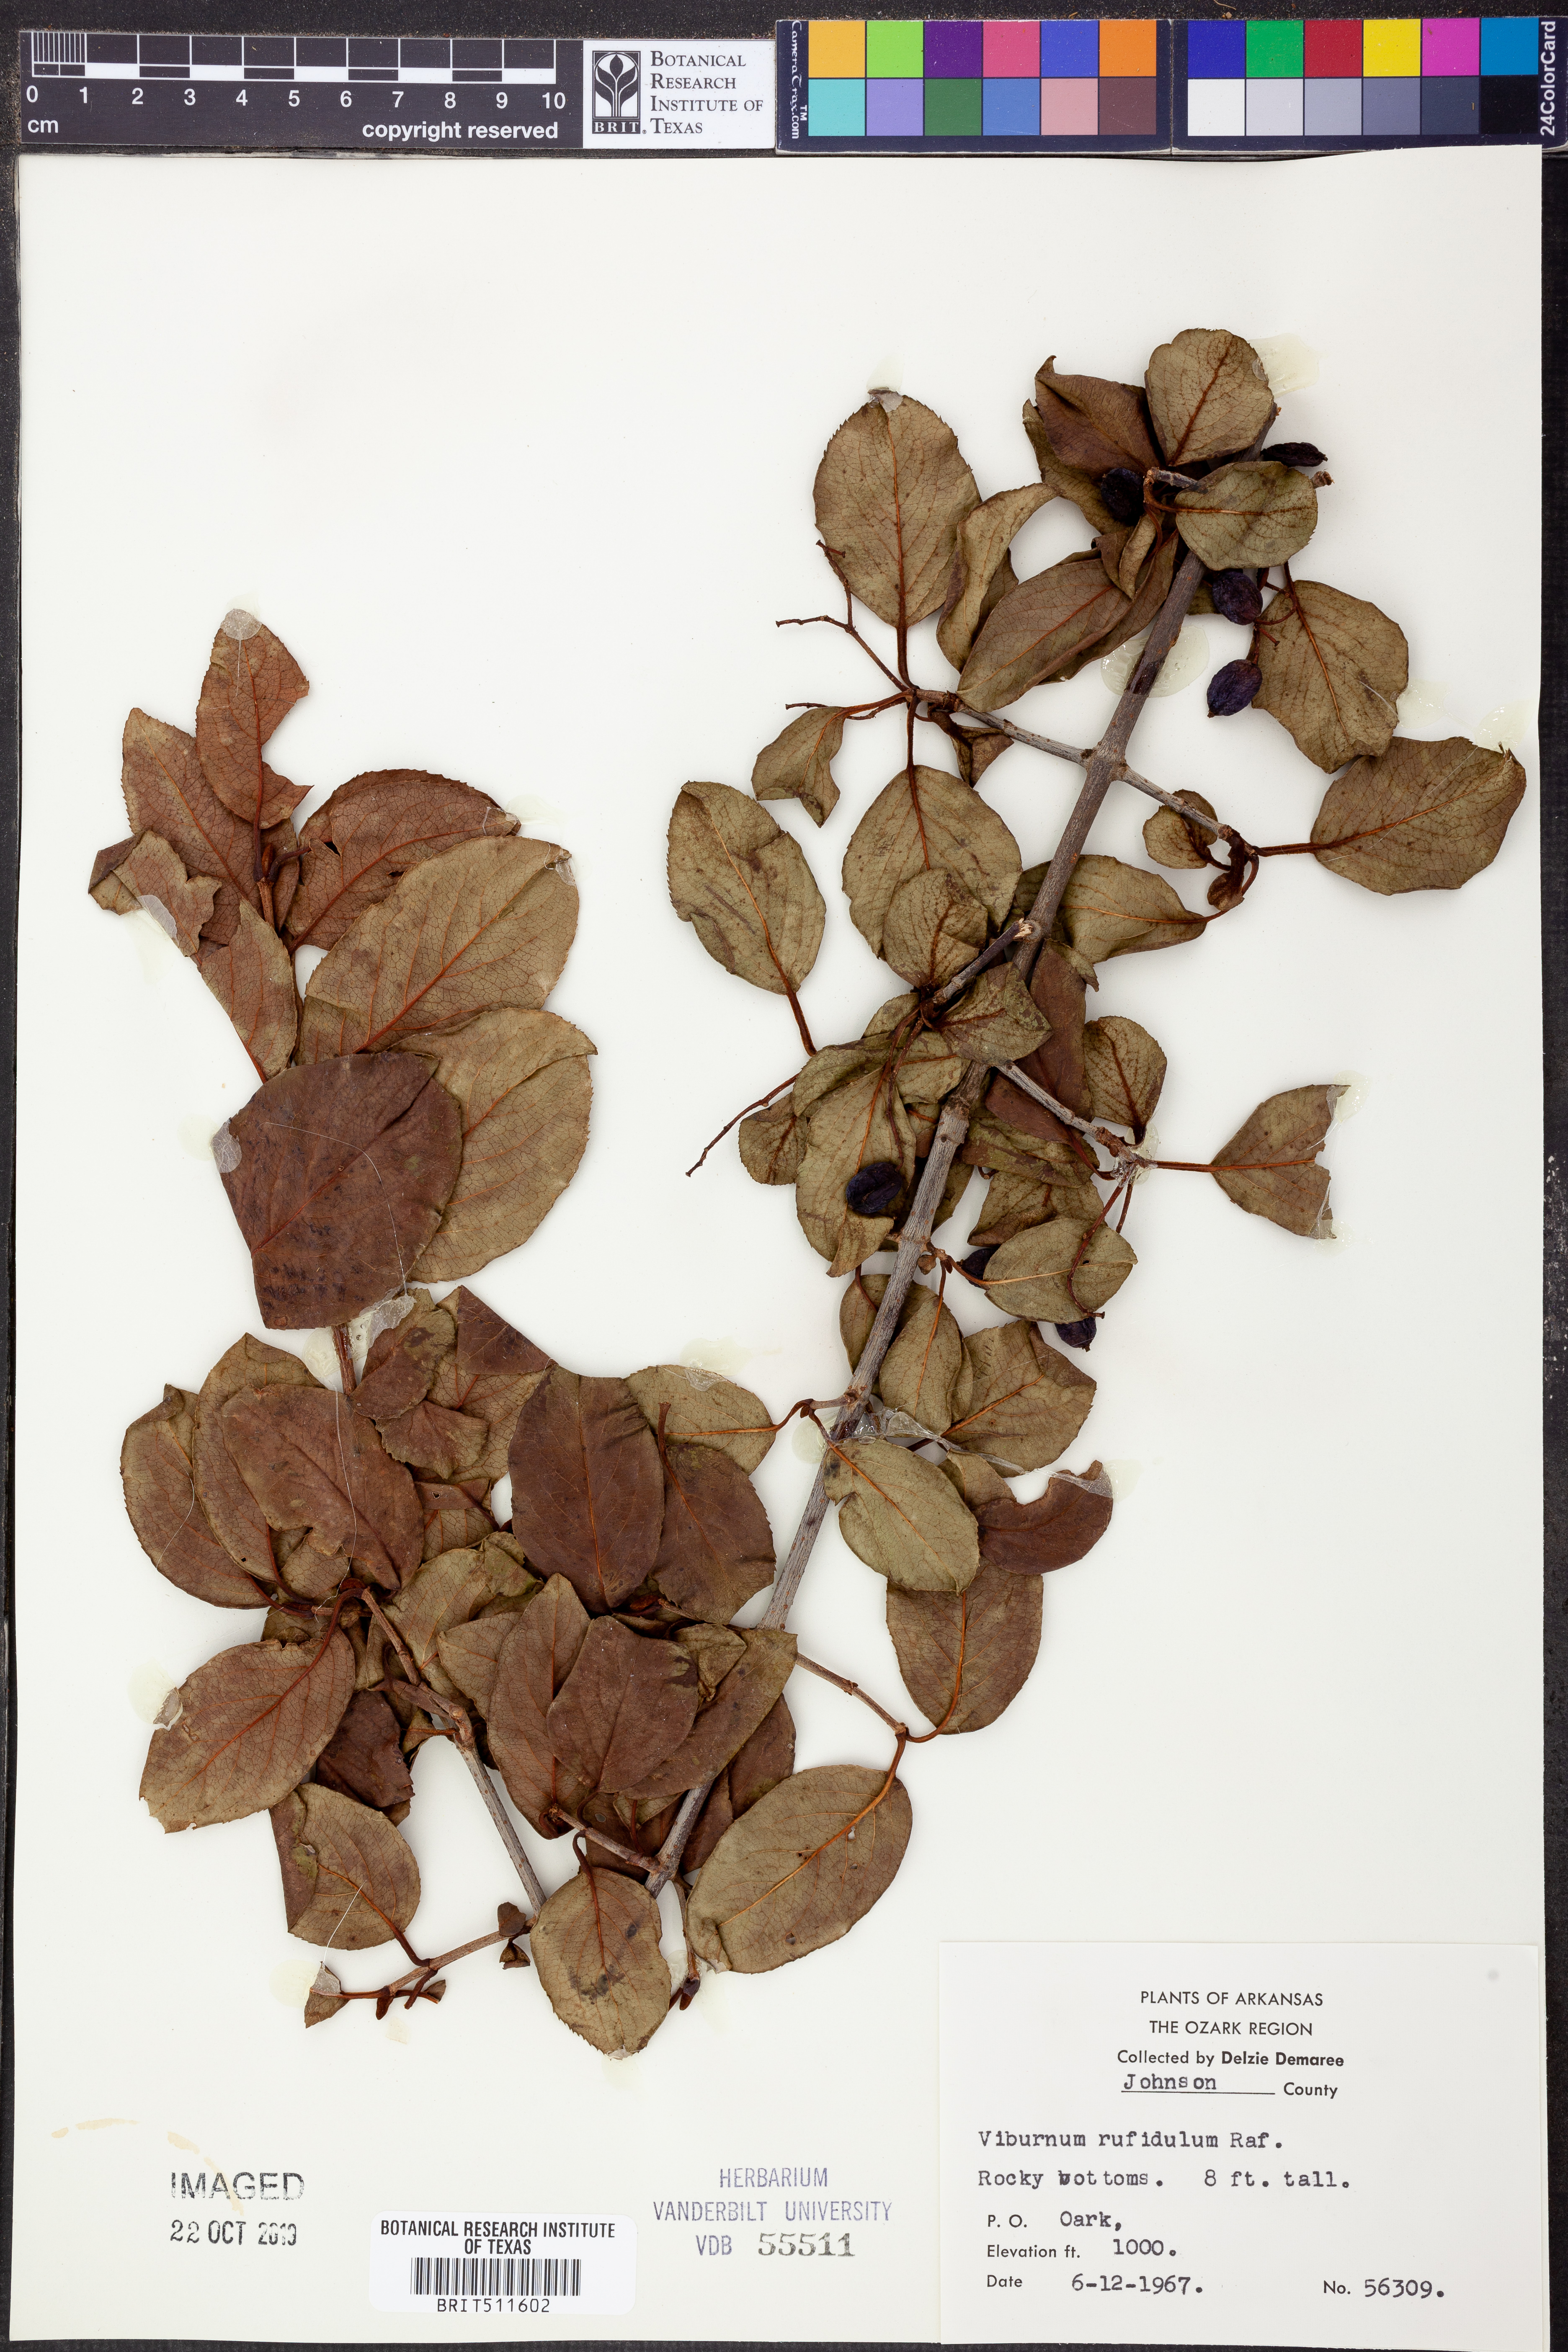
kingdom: Plantae
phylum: Tracheophyta
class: Magnoliopsida
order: Dipsacales
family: Viburnaceae
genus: Viburnum
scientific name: Viburnum rufidulum
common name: Blue haw
